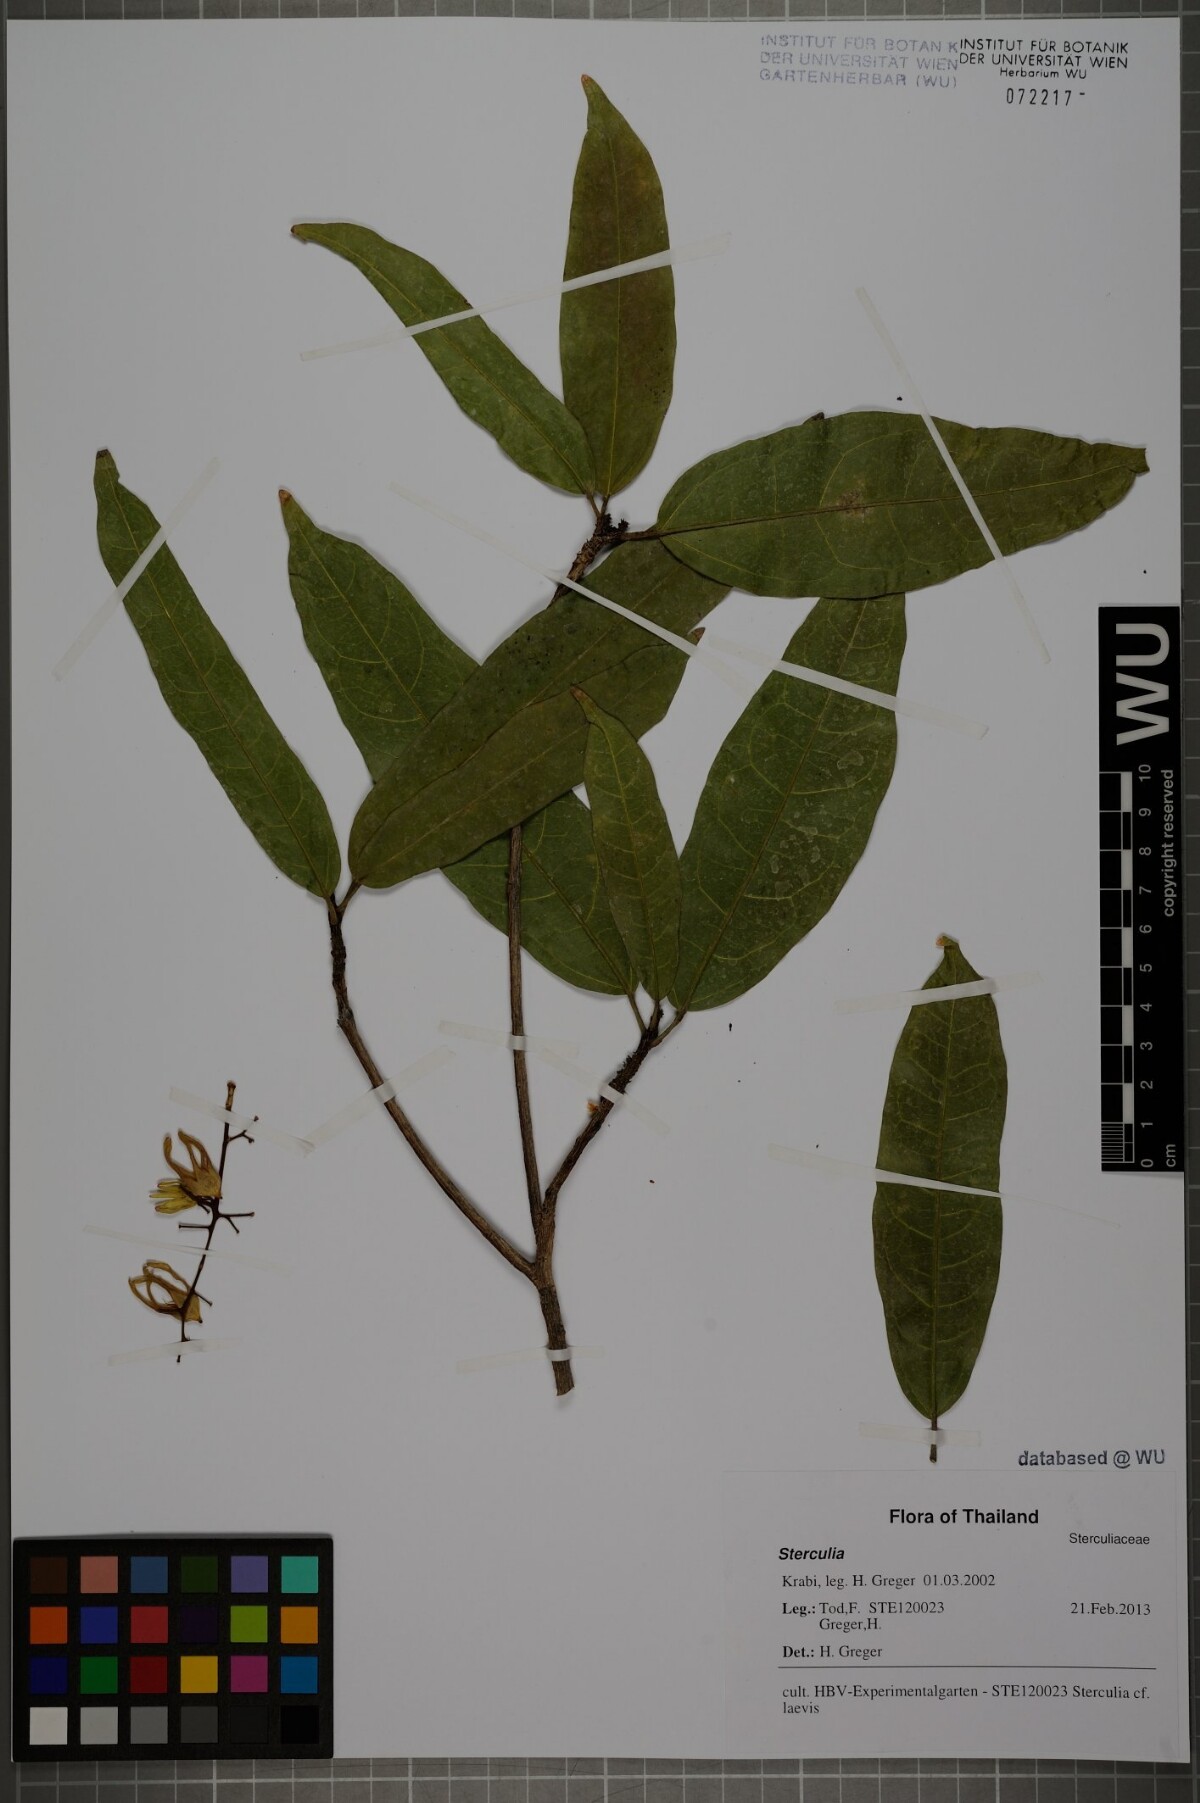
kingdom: Plantae
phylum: Tracheophyta
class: Magnoliopsida
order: Malvales
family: Malvaceae
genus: Sterculia
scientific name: Sterculia lanceolata
